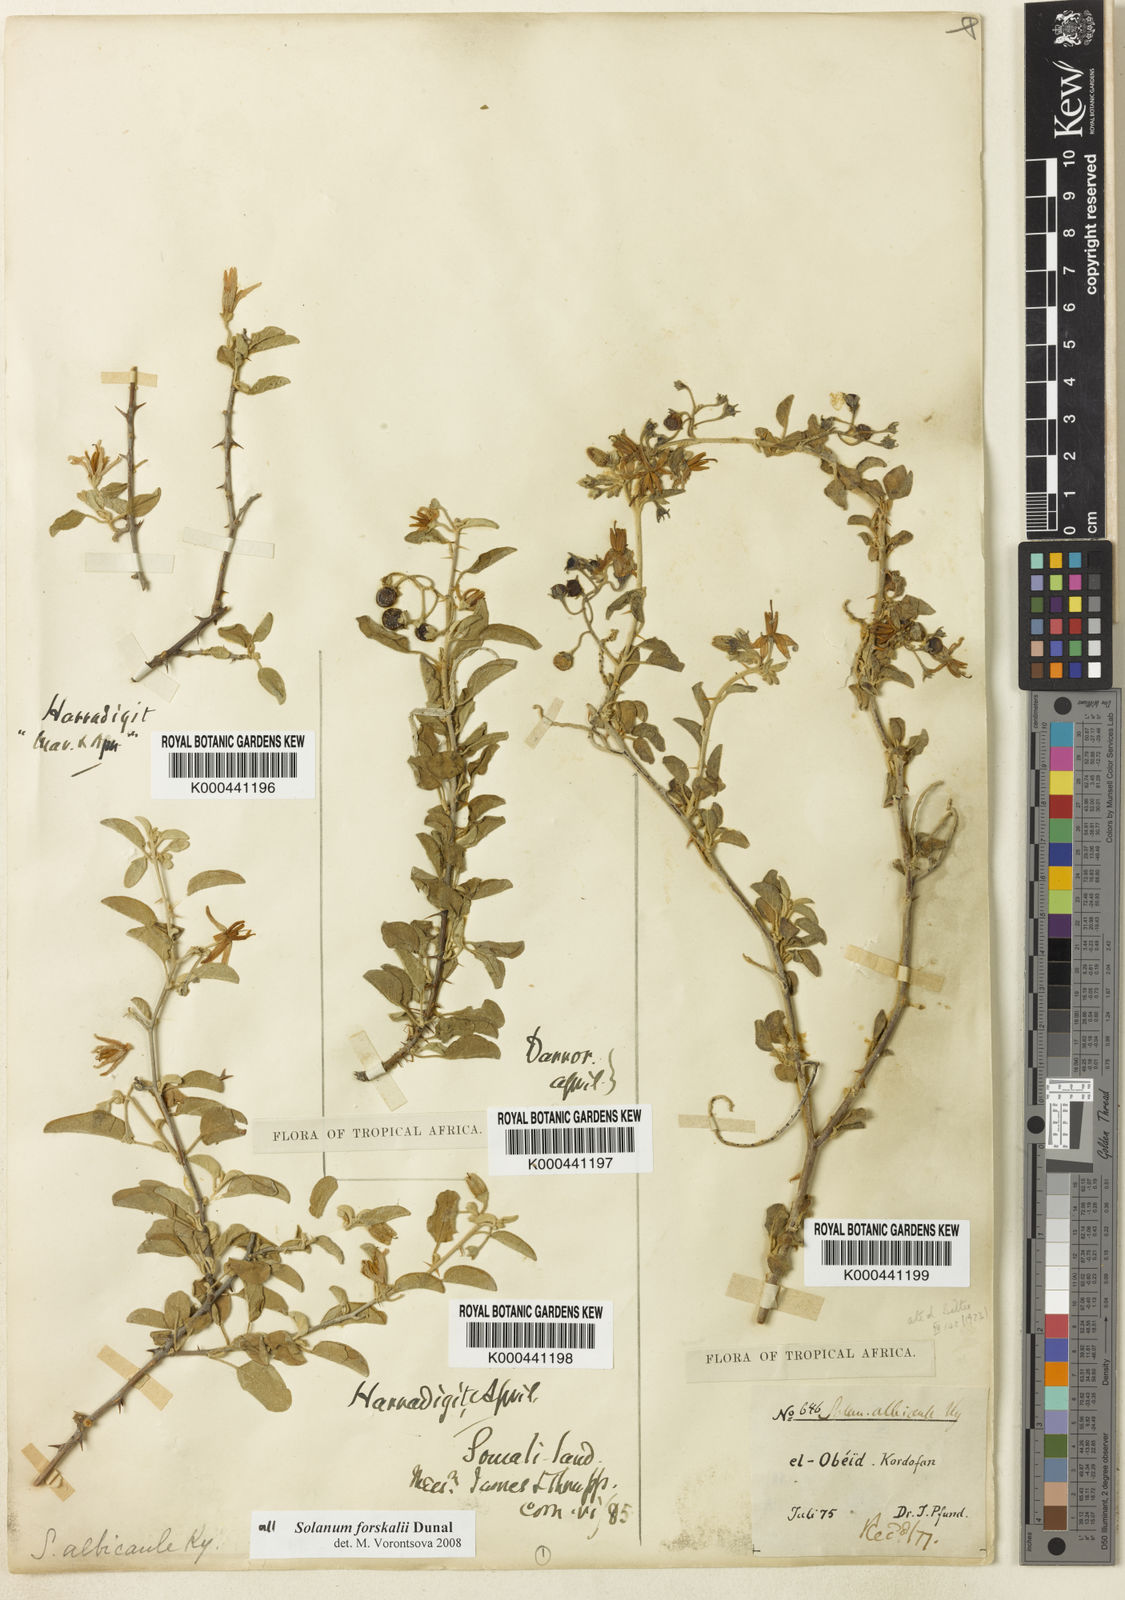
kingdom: Plantae
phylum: Tracheophyta
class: Magnoliopsida
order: Solanales
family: Solanaceae
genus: Solanum
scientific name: Solanum
